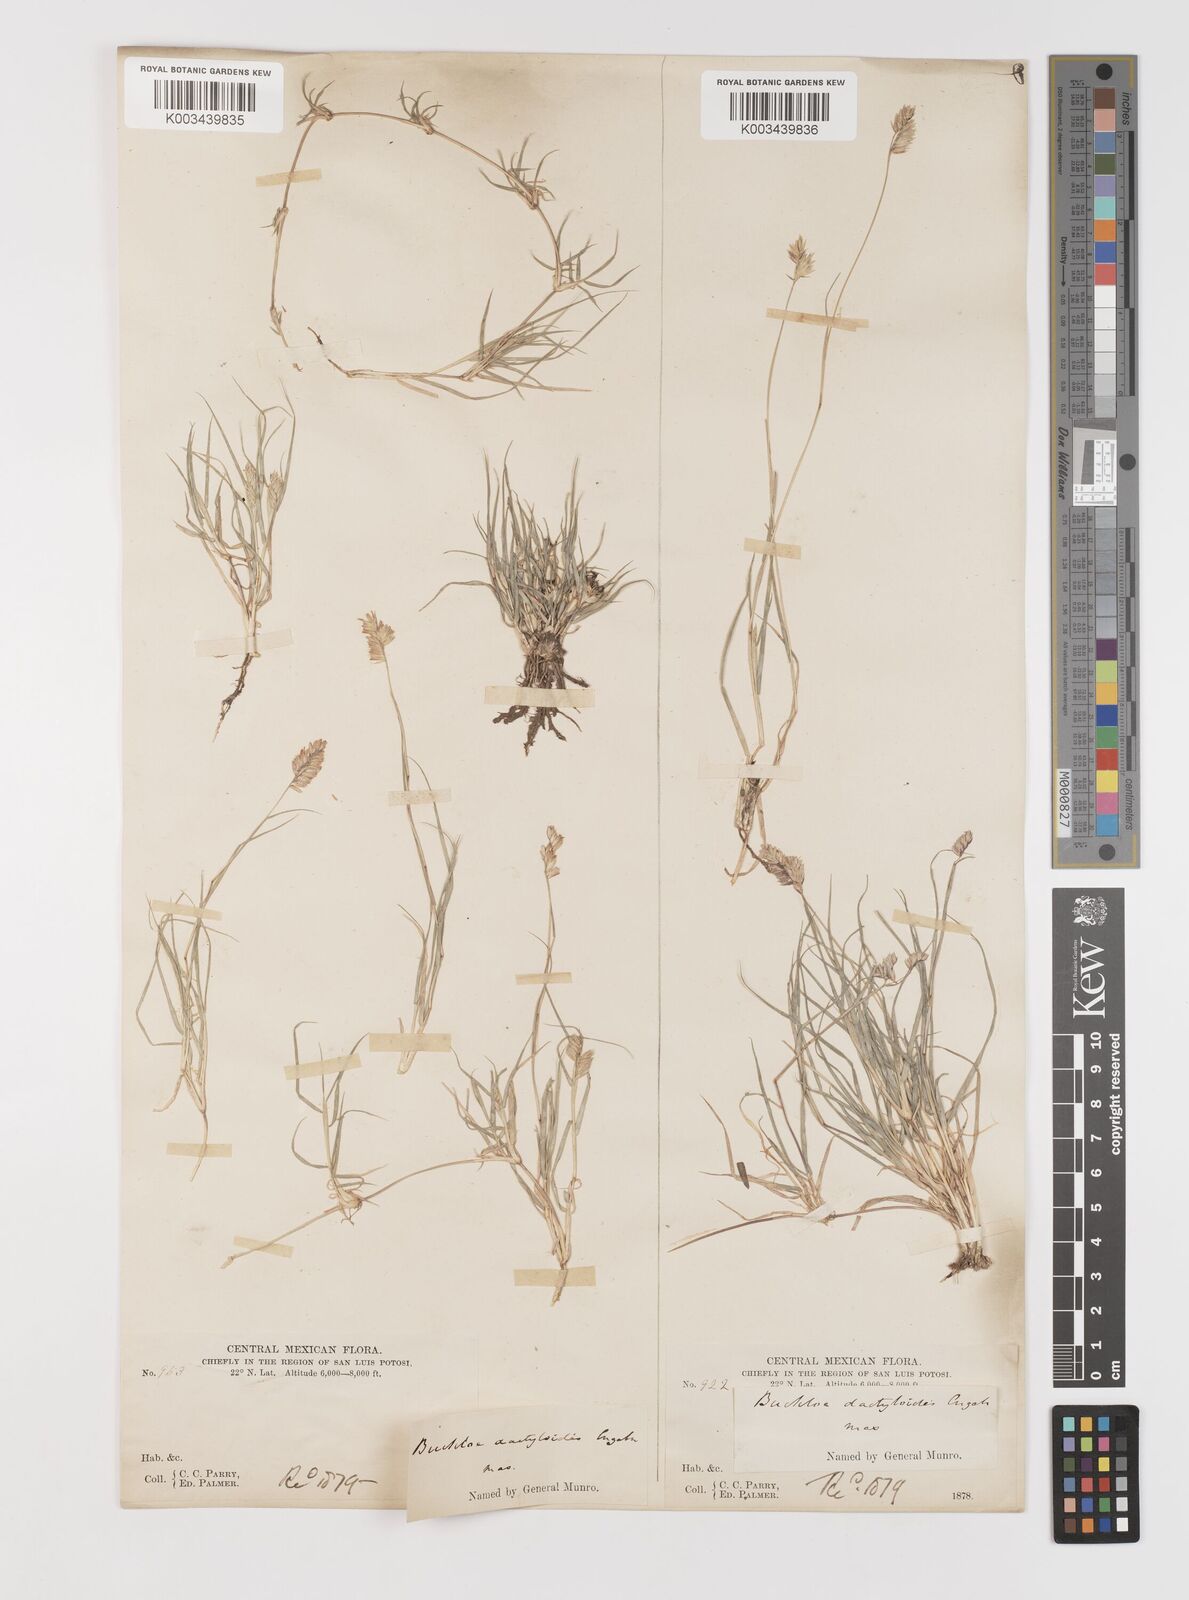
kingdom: Plantae
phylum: Tracheophyta
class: Liliopsida
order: Poales
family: Poaceae
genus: Bouteloua
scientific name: Bouteloua dactyloides
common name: Buffalo grass
